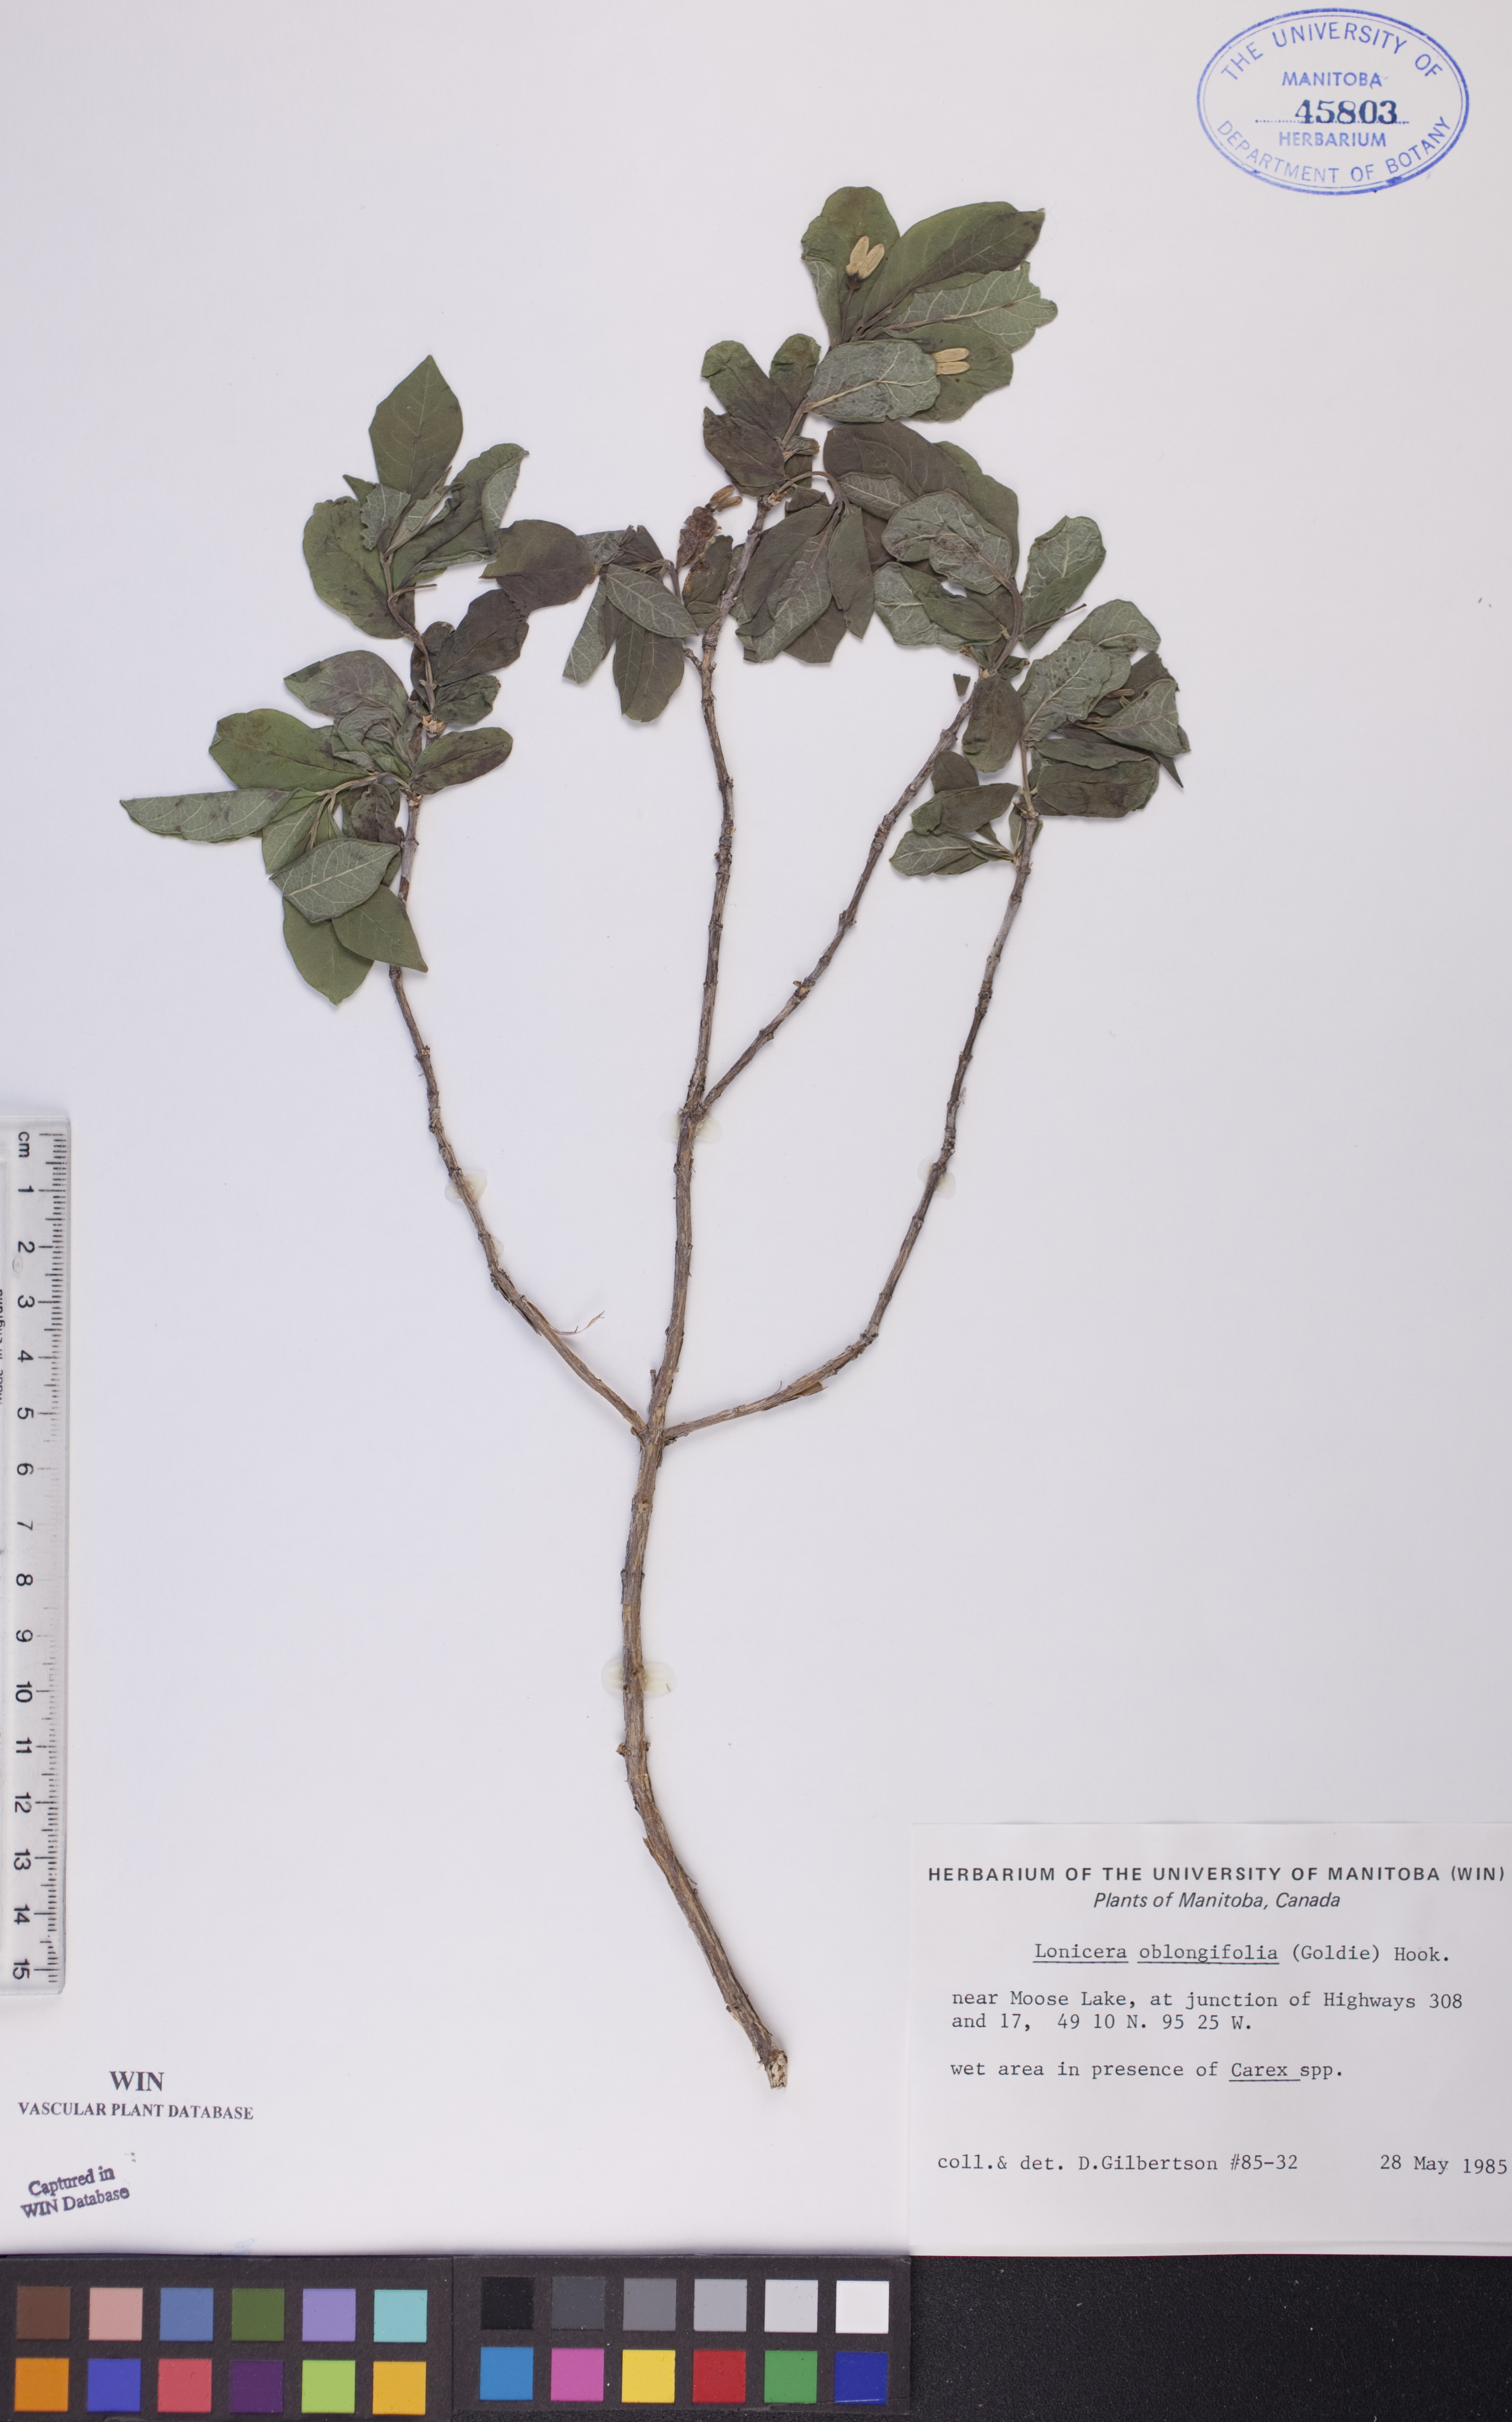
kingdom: Plantae
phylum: Tracheophyta
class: Magnoliopsida
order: Dipsacales
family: Caprifoliaceae
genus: Lonicera
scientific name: Lonicera oblongifolia
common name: Swamp fly honeysuckle
